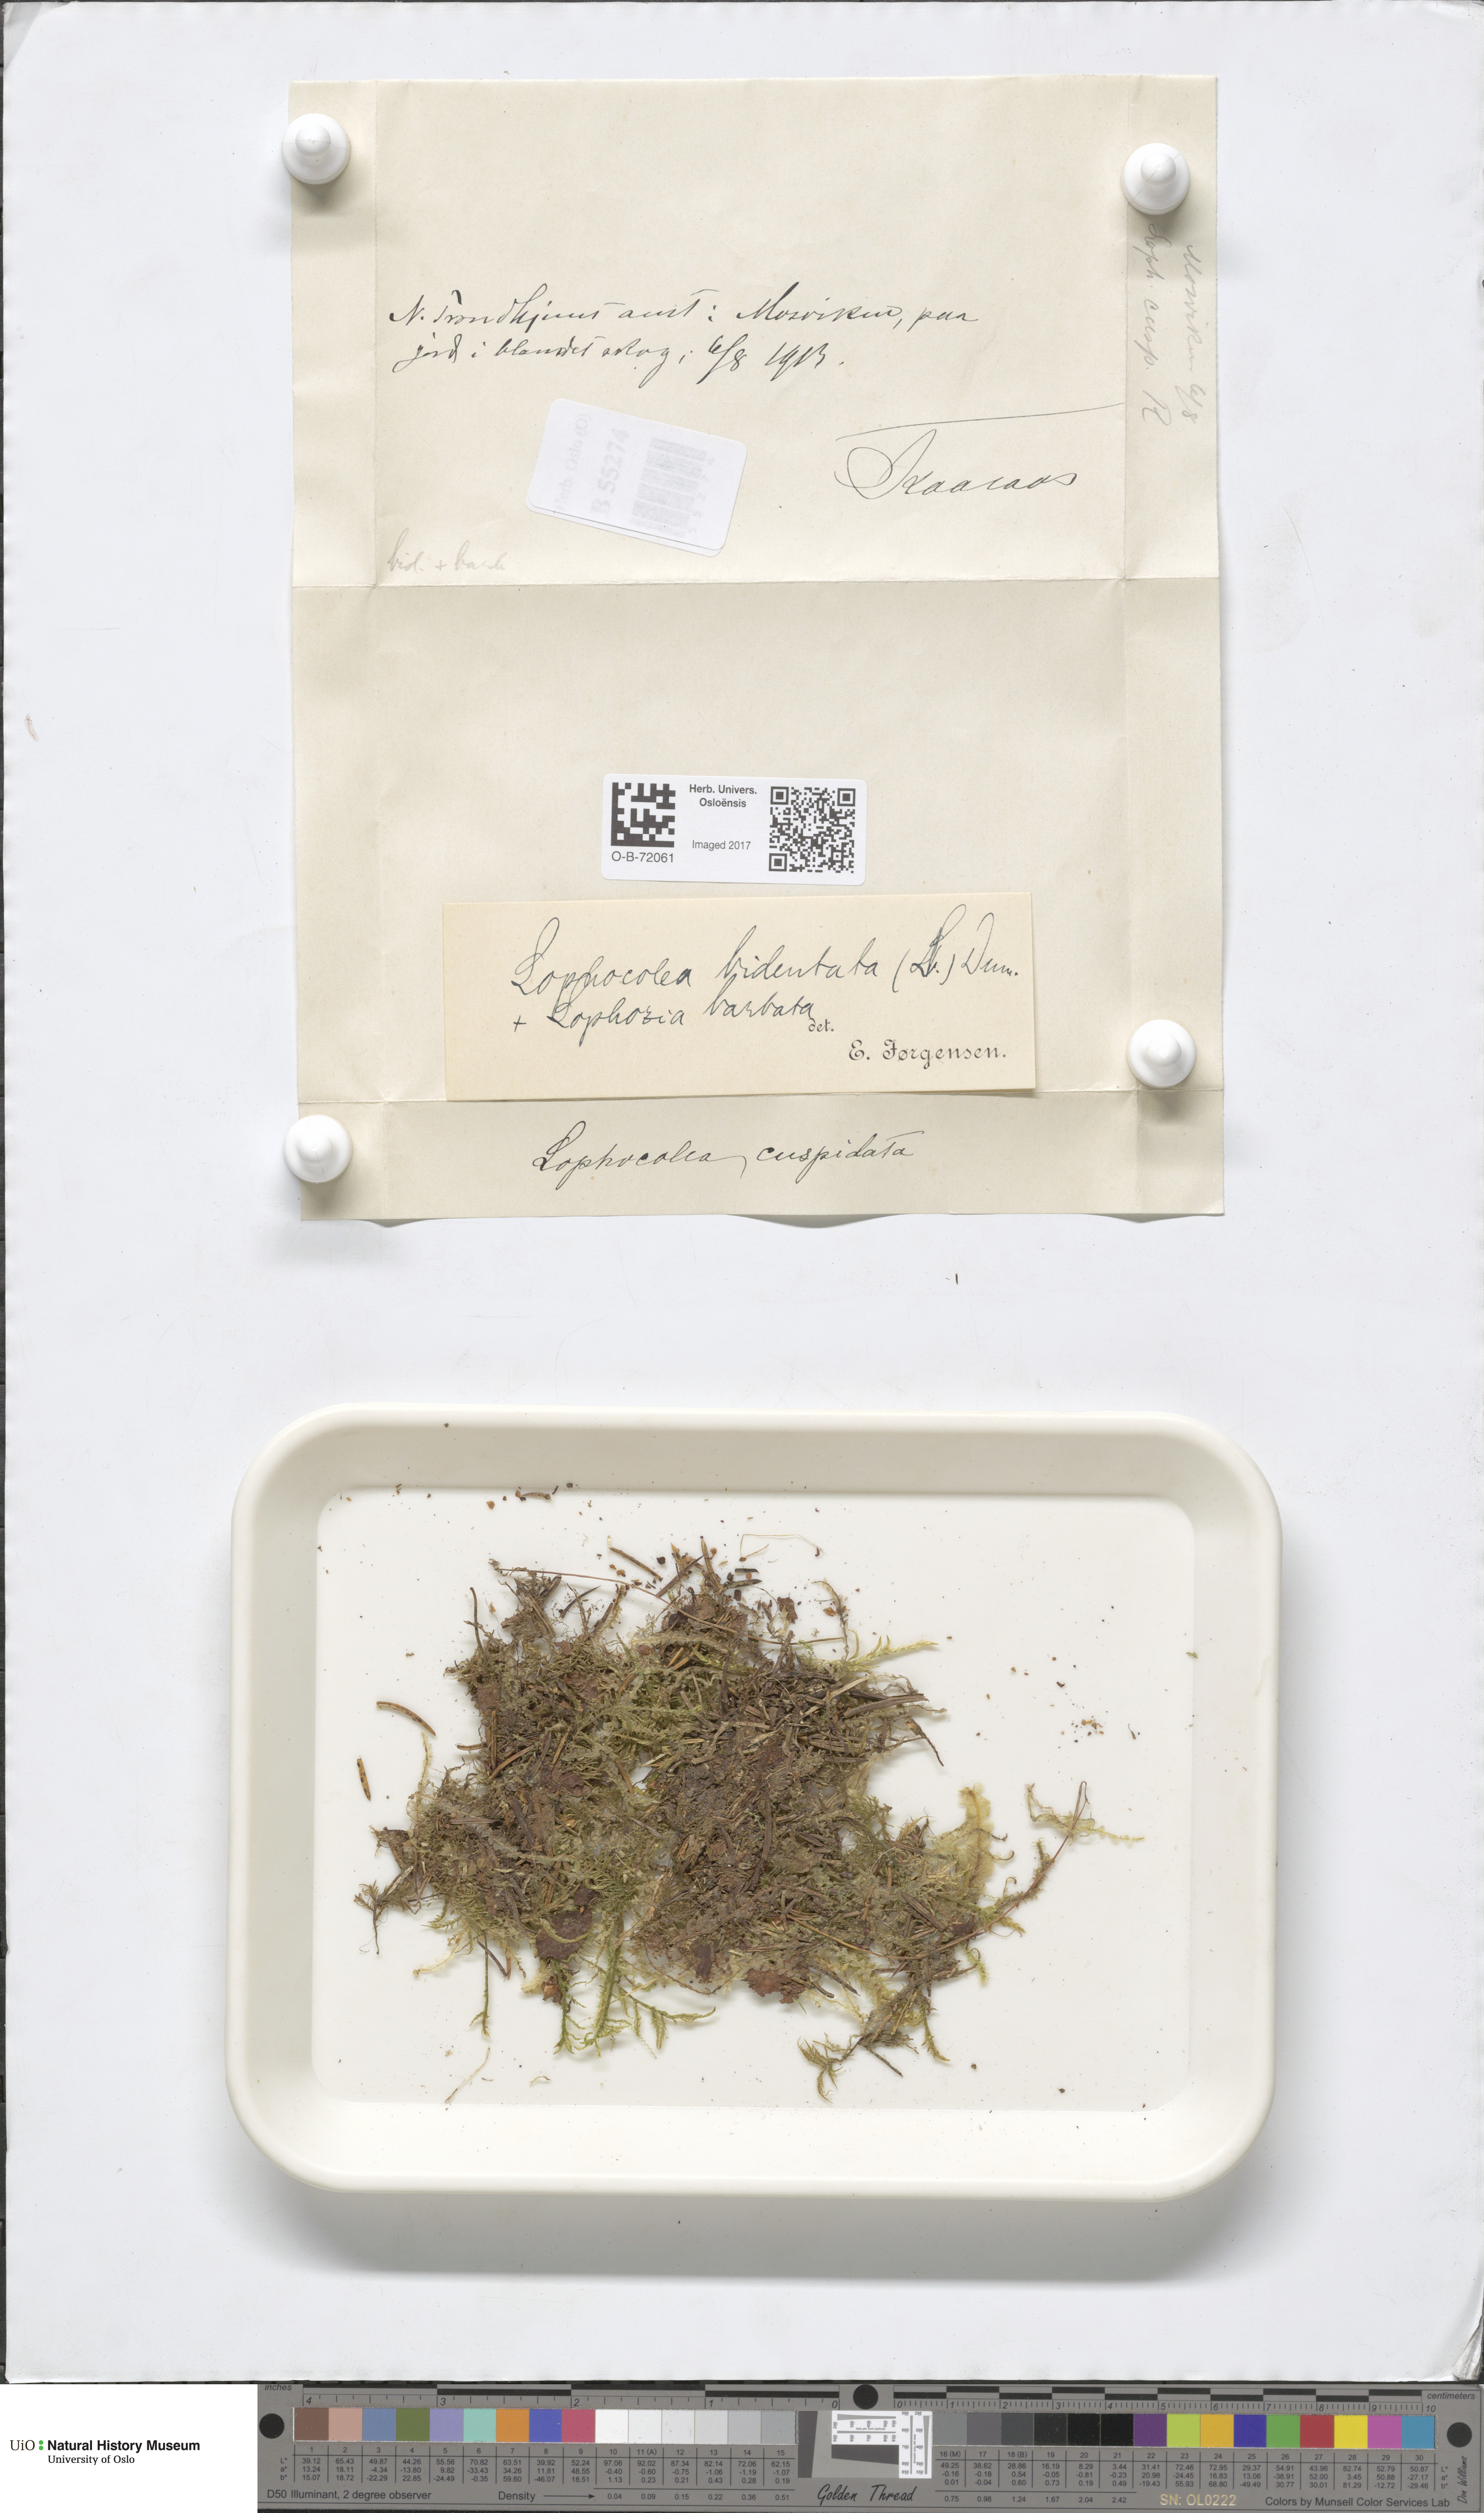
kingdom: Plantae
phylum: Marchantiophyta
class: Jungermanniopsida
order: Jungermanniales
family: Lophocoleaceae
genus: Lophocolea
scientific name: Lophocolea bidentata
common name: Bifid crestwort
